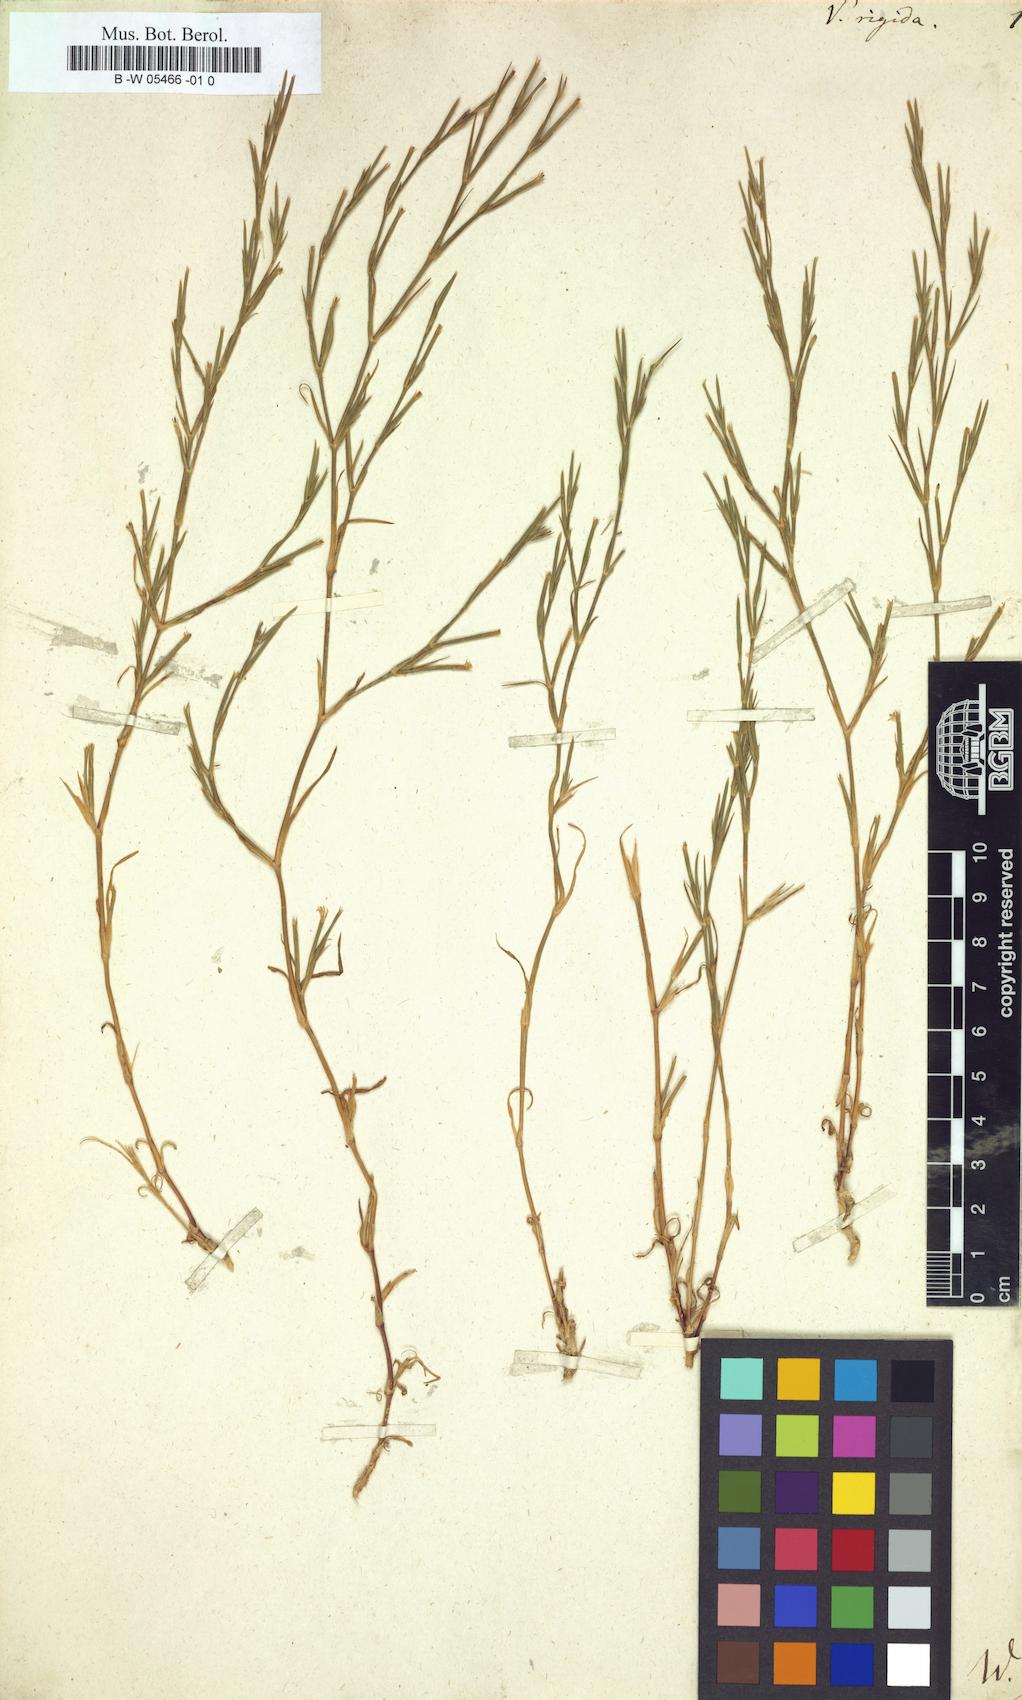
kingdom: Plantae
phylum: Tracheophyta
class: Magnoliopsida
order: Caryophyllales
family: Caryophyllaceae
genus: Dianthus
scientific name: Dianthus nudiflorus
